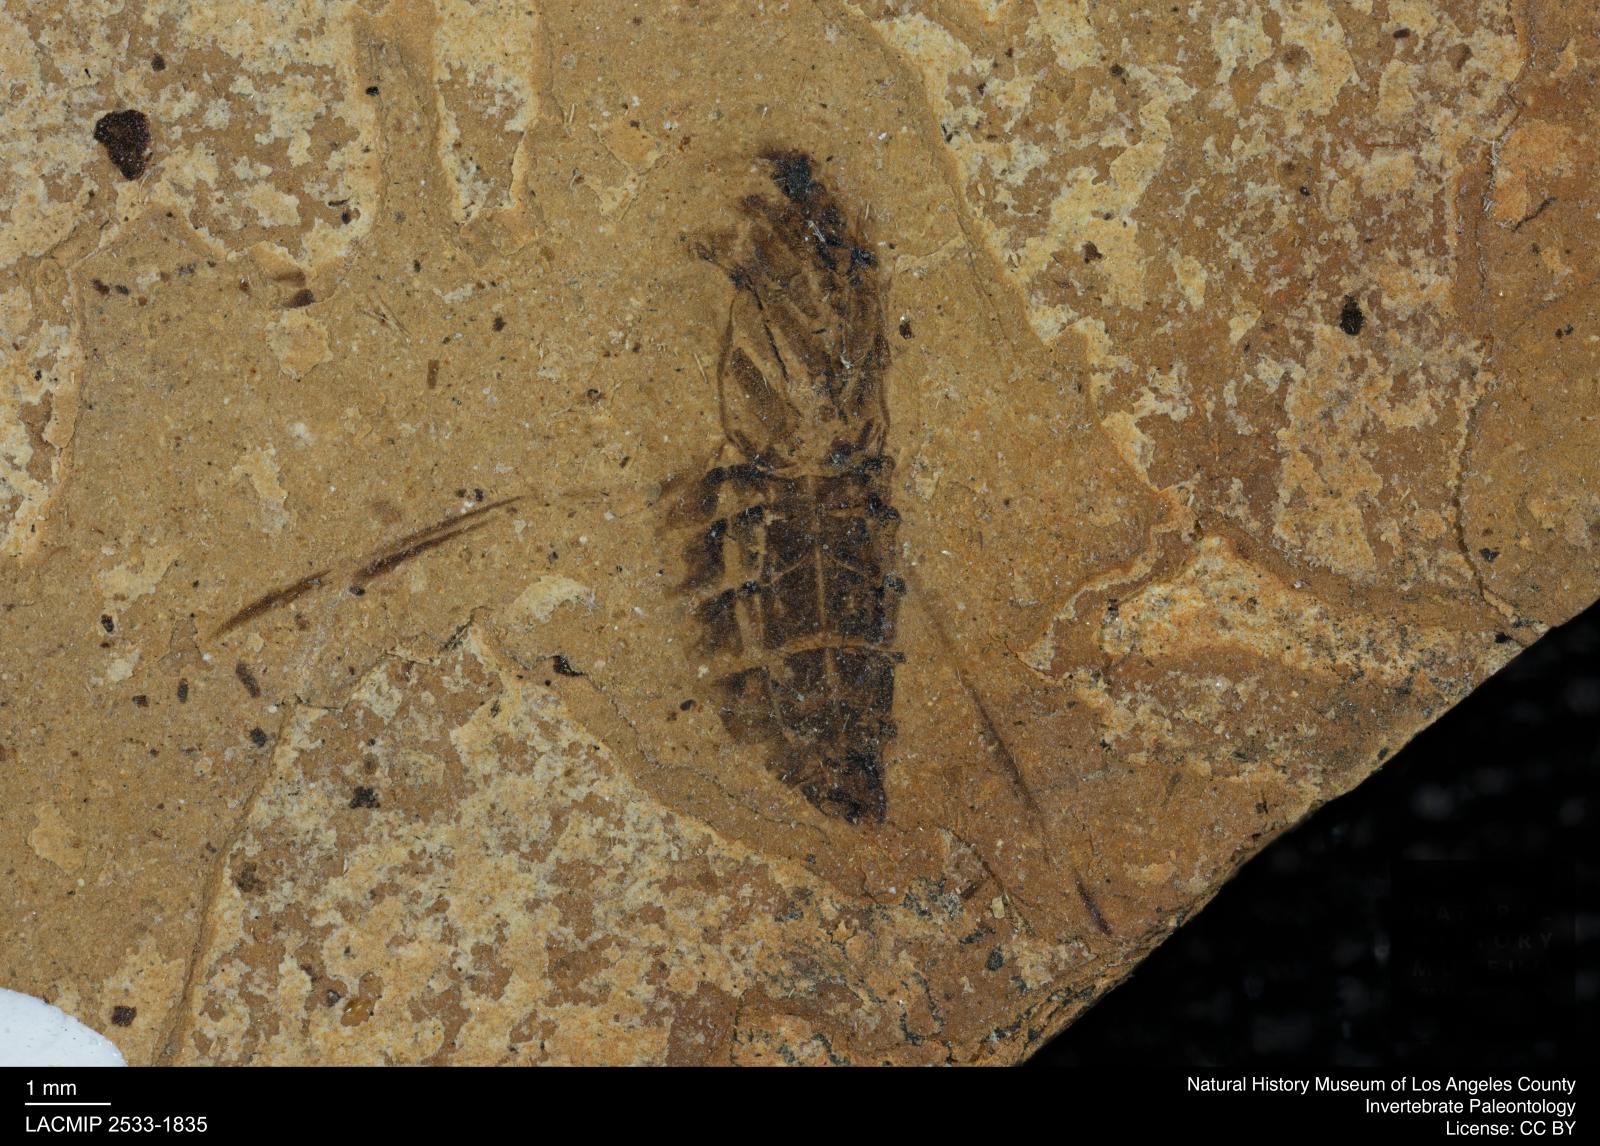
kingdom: Animalia
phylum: Arthropoda
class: Insecta
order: Hemiptera
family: Notonectidae
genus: Notonecta
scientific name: Notonecta
